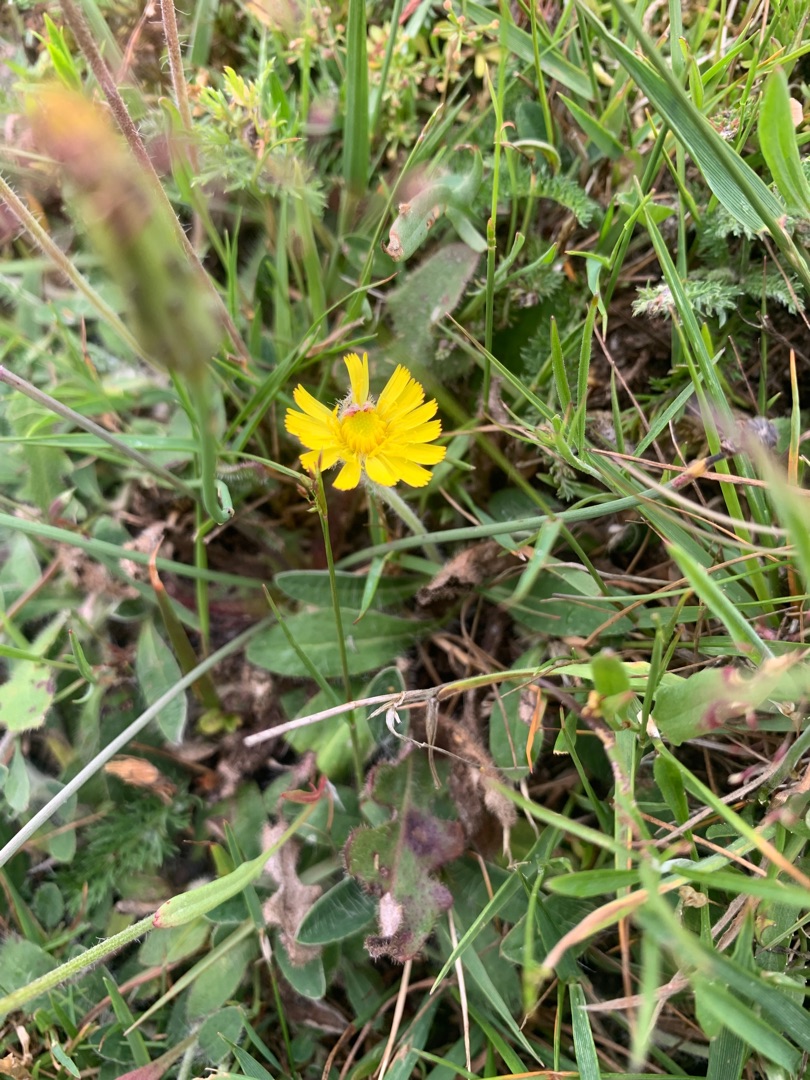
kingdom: Plantae
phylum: Tracheophyta
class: Magnoliopsida
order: Asterales
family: Asteraceae
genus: Pilosella
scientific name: Pilosella officinarum
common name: Håret høgeurt
